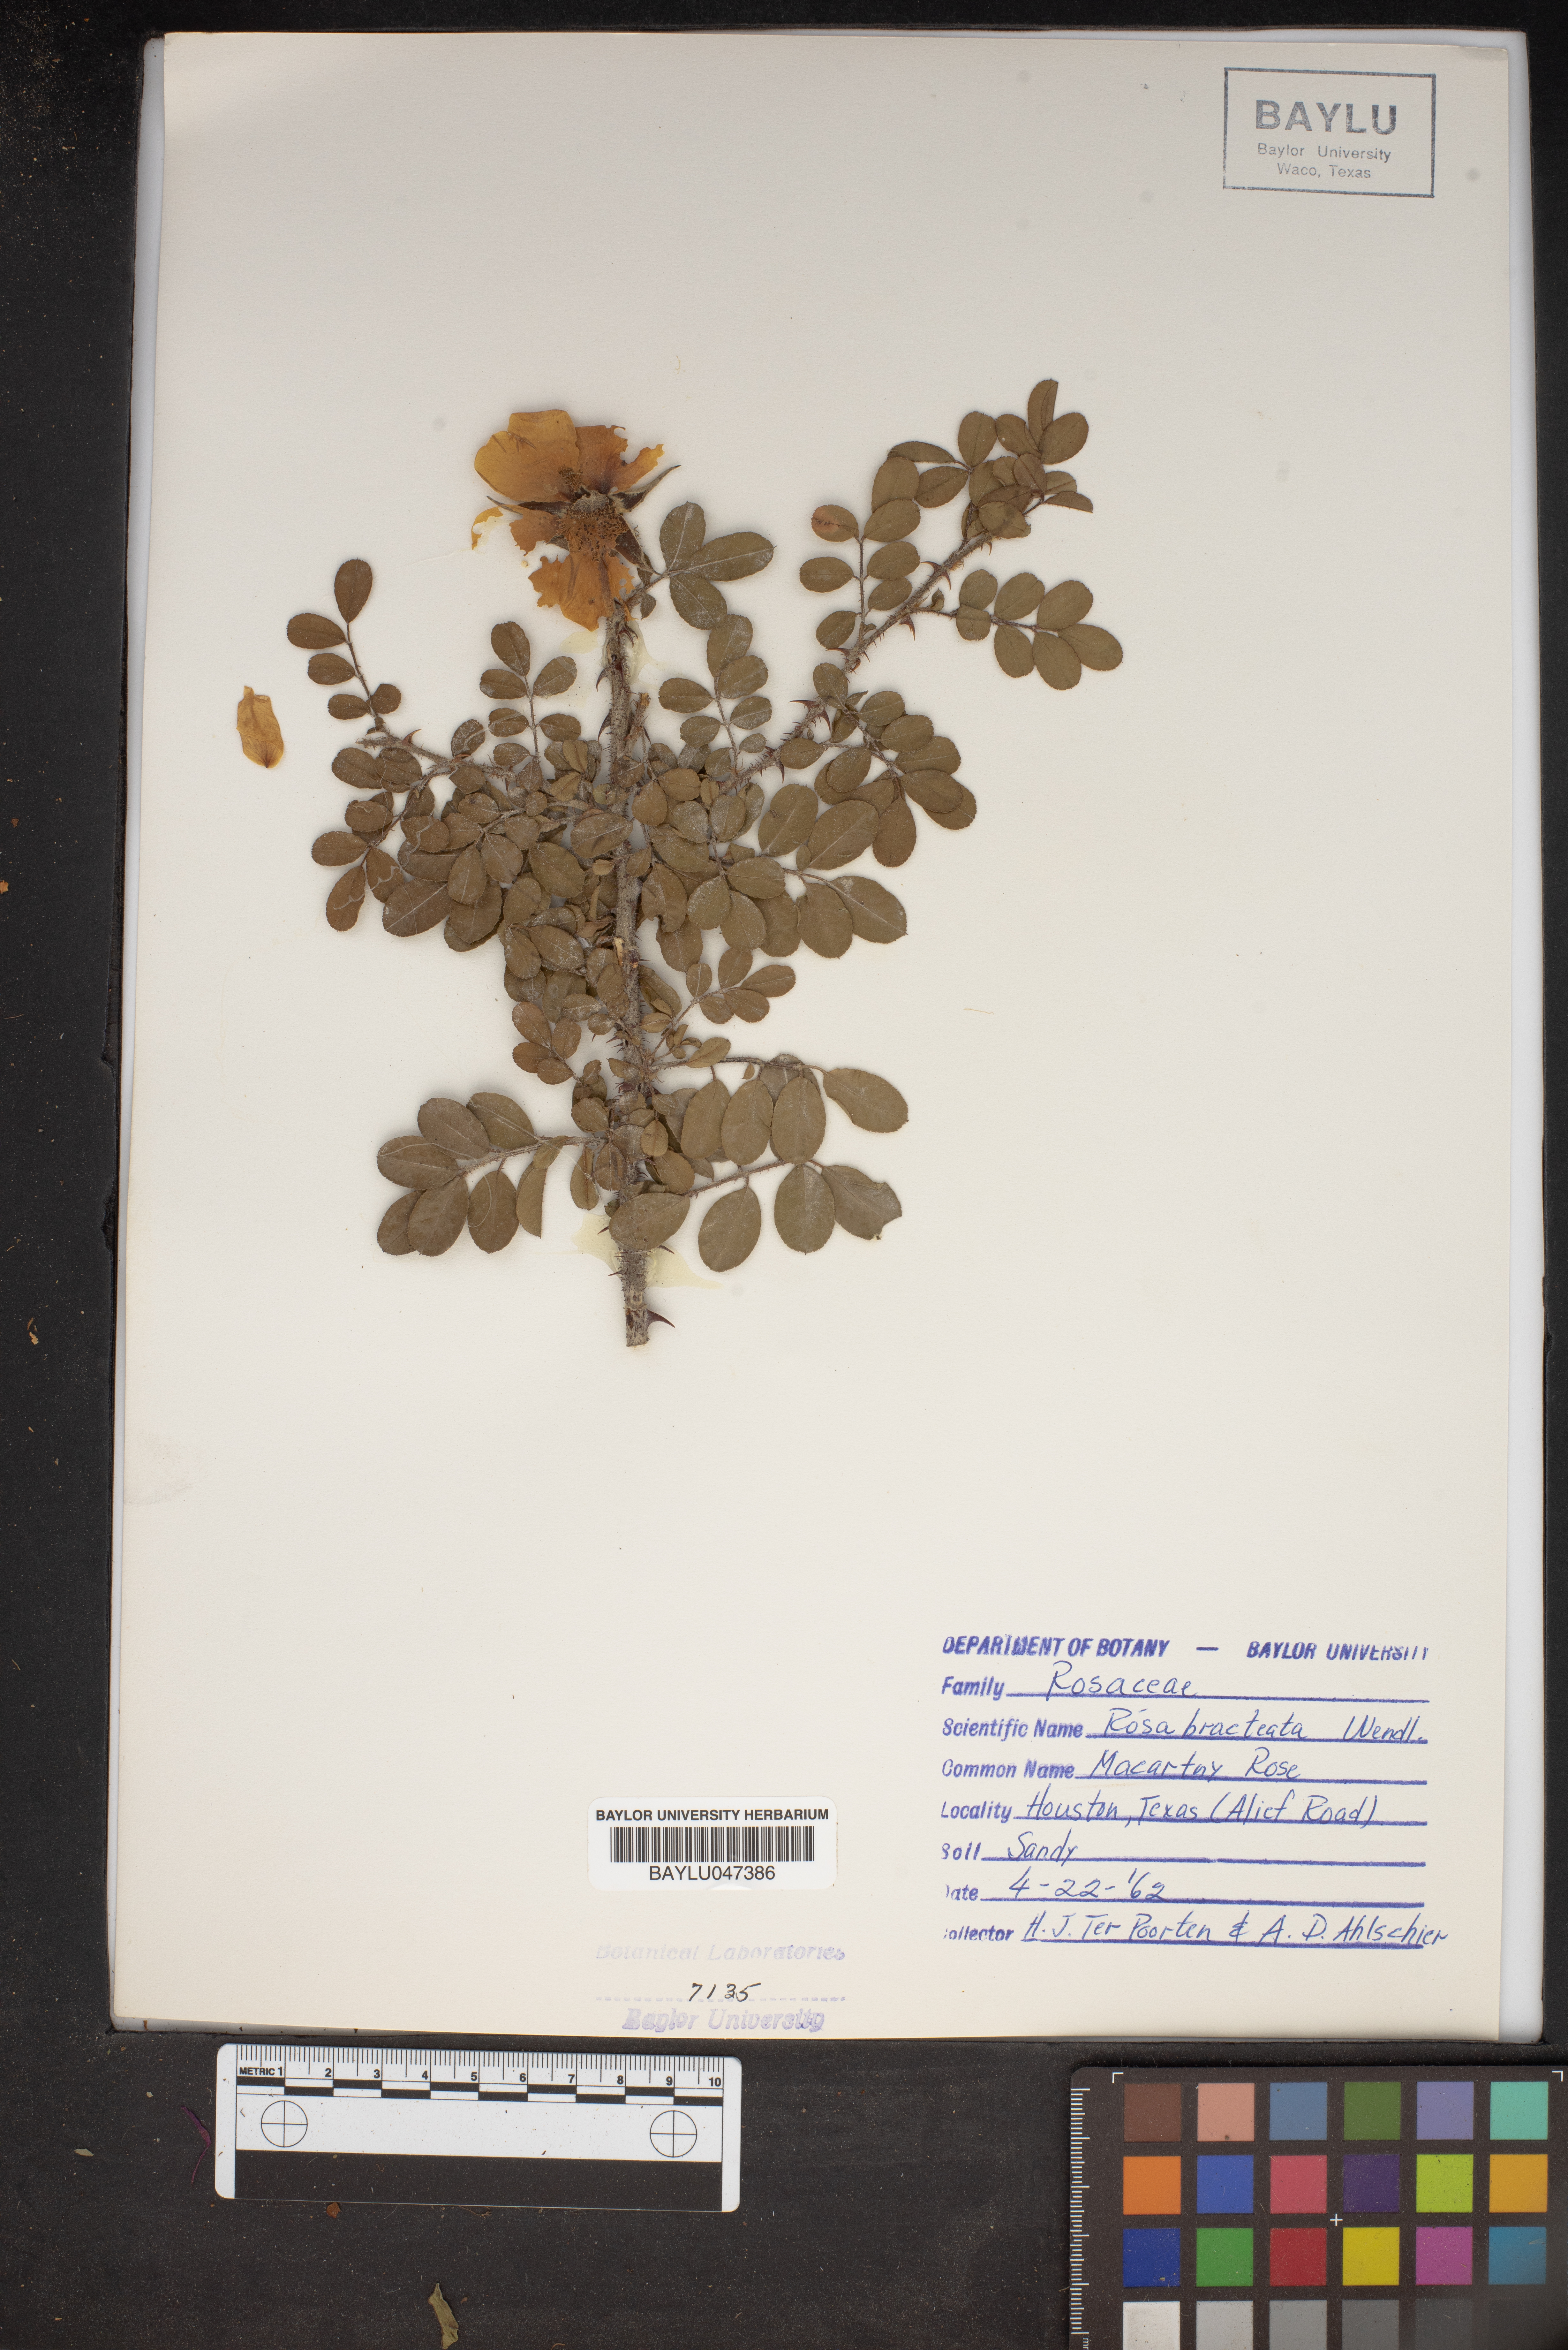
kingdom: Plantae
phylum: Tracheophyta
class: Magnoliopsida
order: Rosales
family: Rosaceae
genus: Rosa
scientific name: Rosa bracteata
